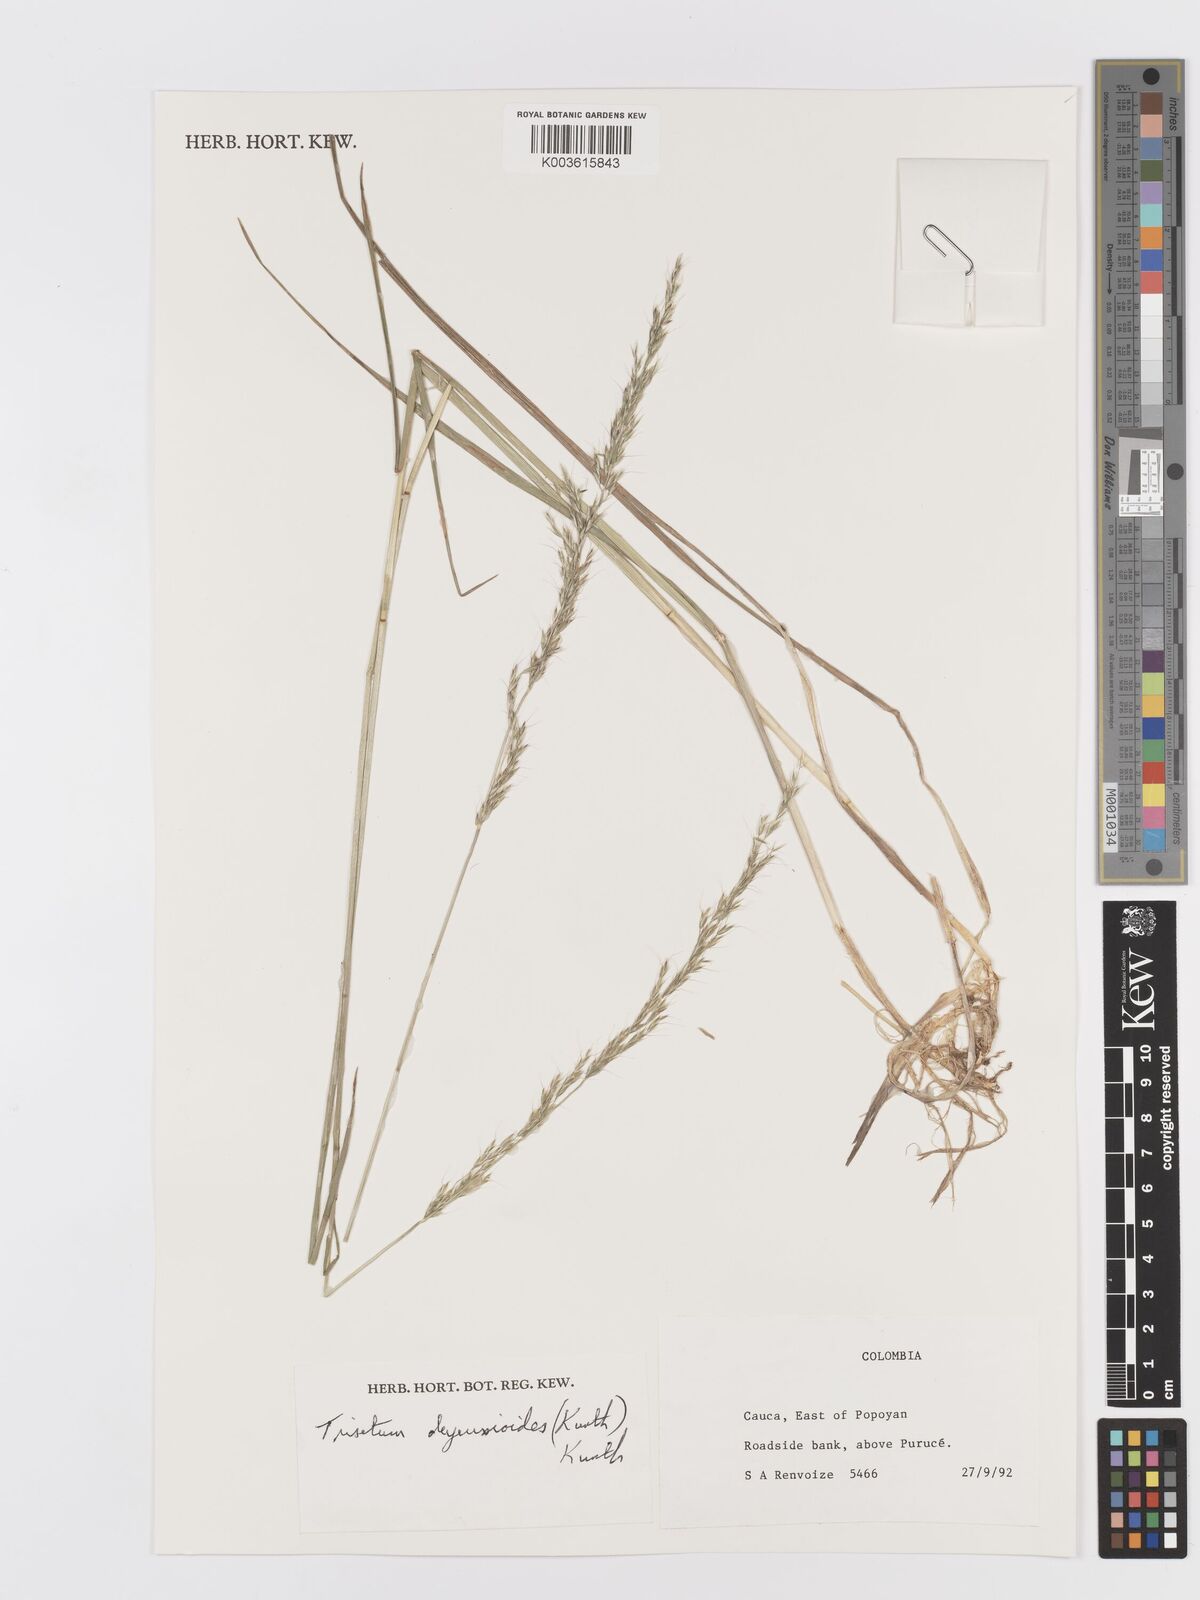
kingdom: Plantae
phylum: Tracheophyta
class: Liliopsida
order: Poales
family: Poaceae
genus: Peyritschia
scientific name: Peyritschia irazuensis
